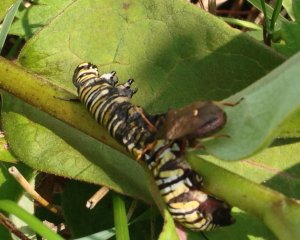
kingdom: Animalia
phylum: Arthropoda
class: Insecta
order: Lepidoptera
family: Nymphalidae
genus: Danaus
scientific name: Danaus plexippus
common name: Monarch
